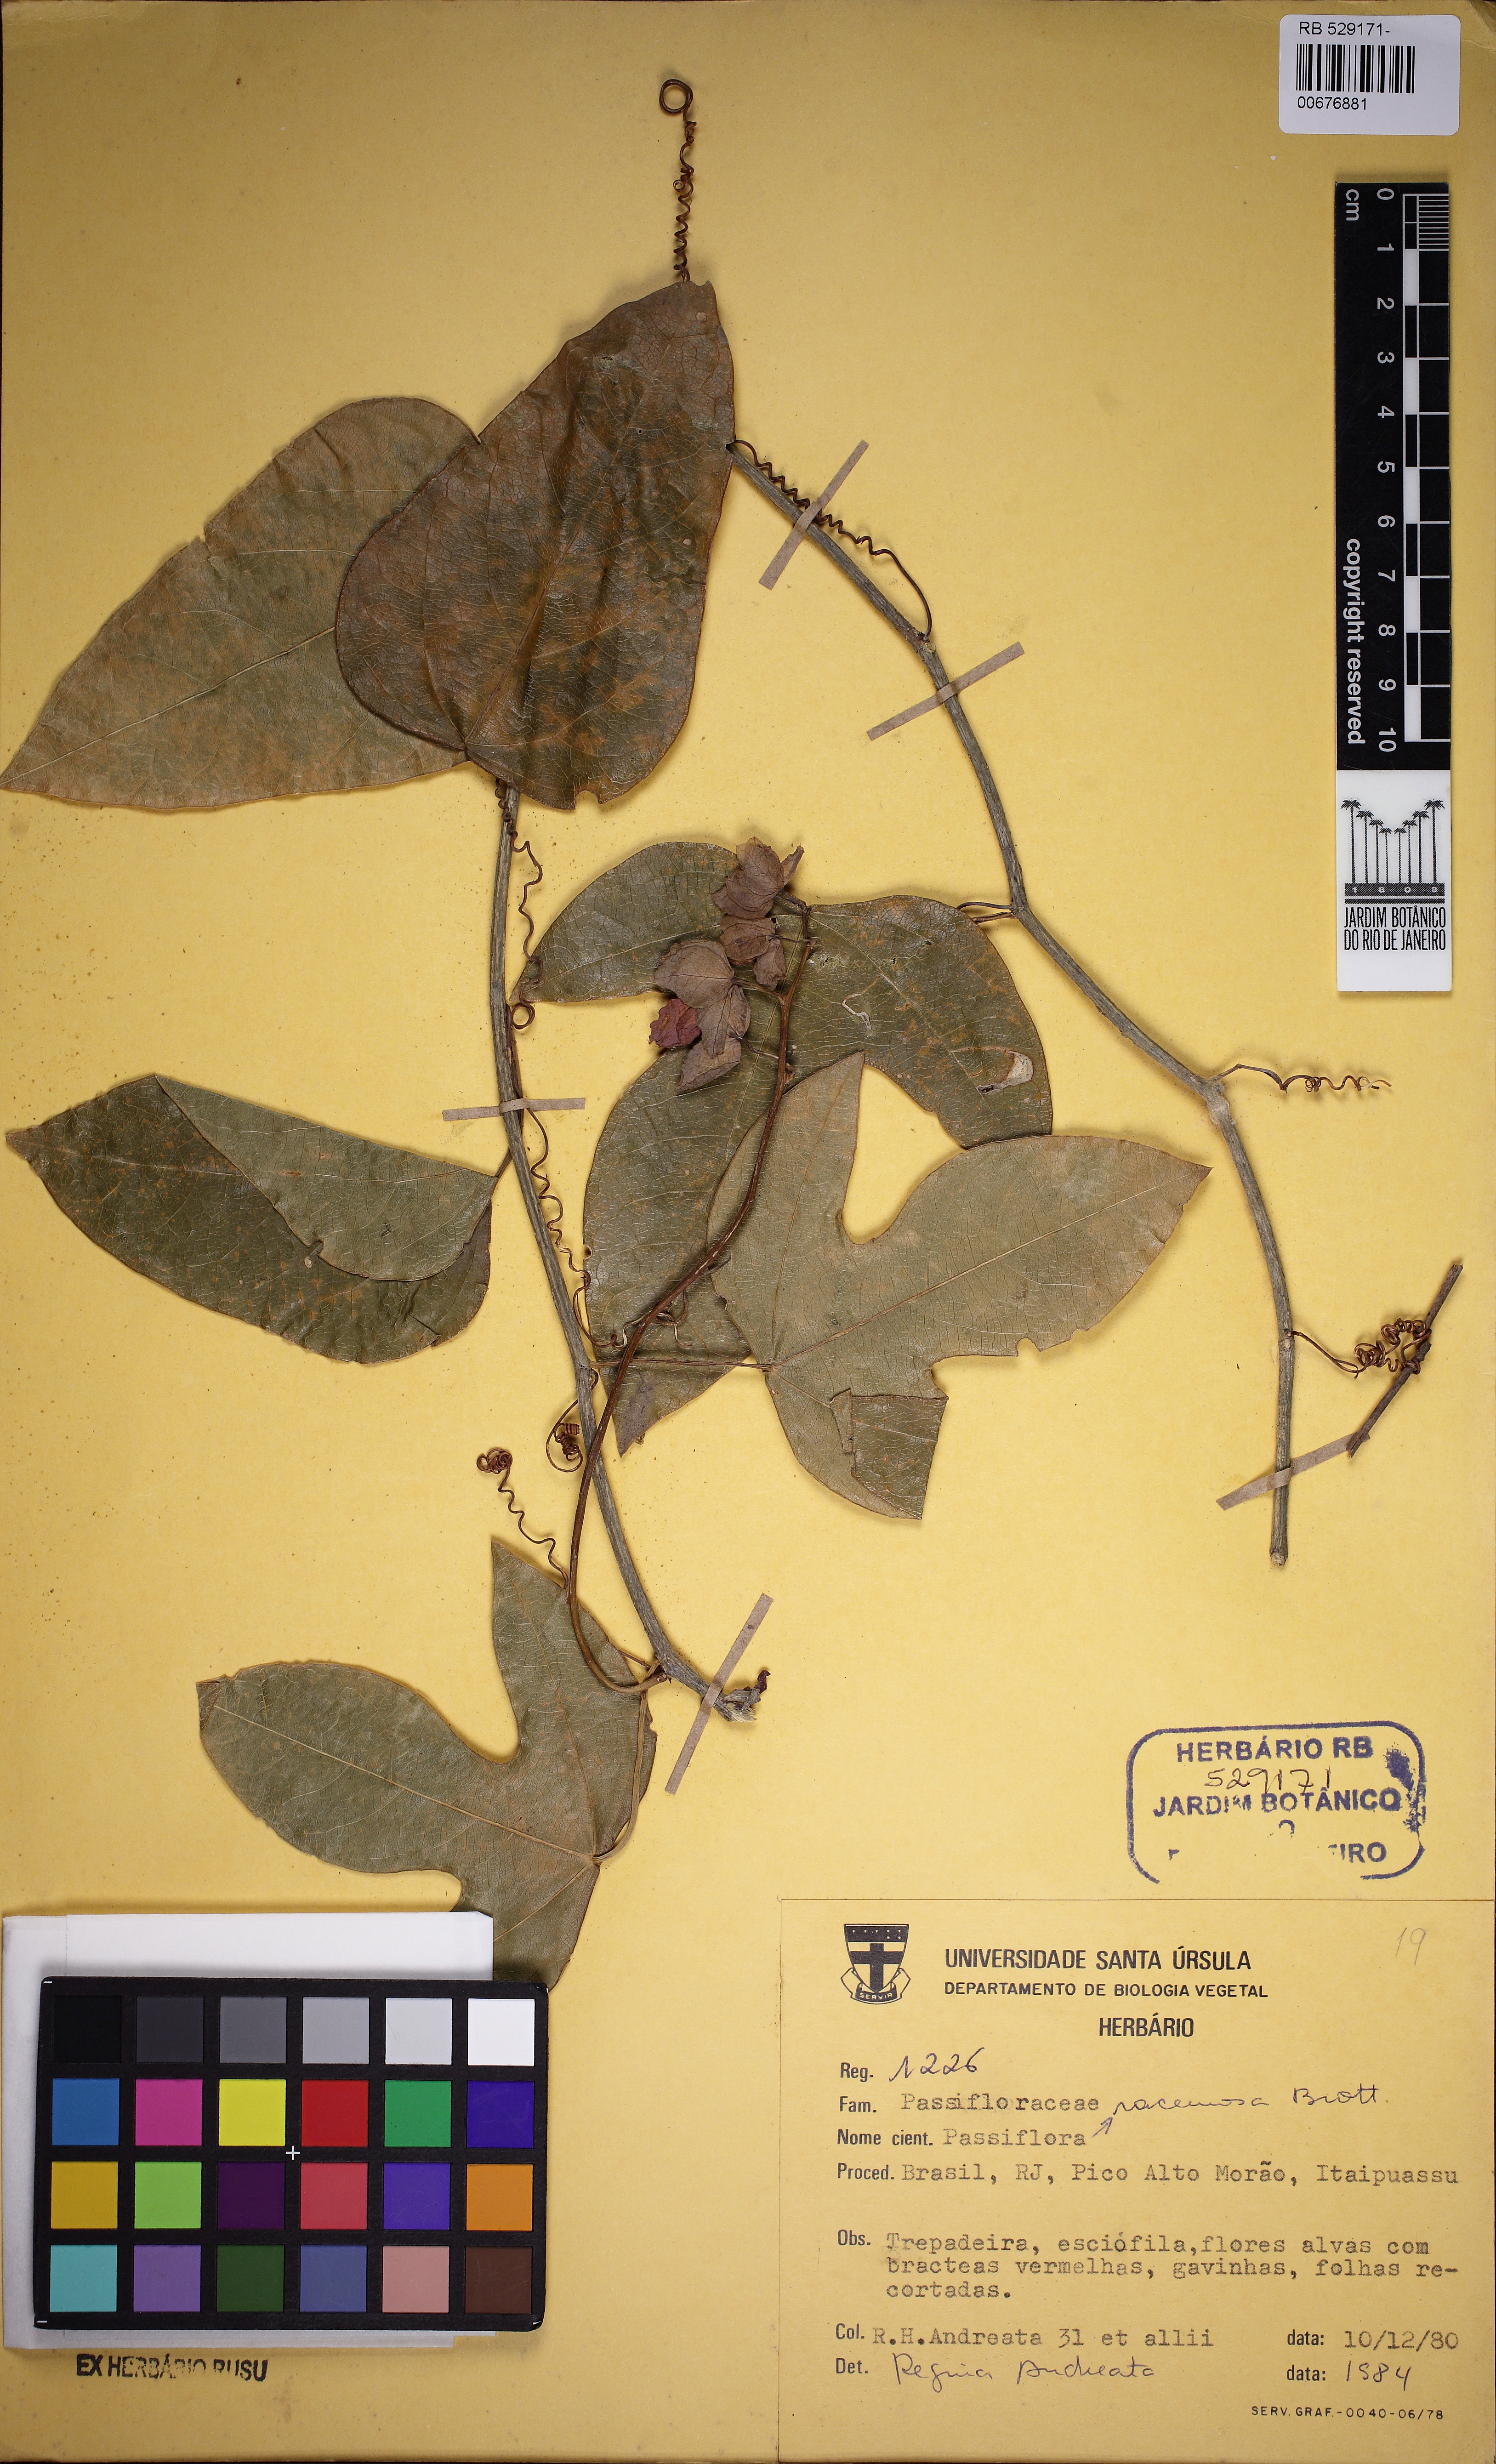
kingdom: Plantae
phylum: Tracheophyta
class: Magnoliopsida
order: Malpighiales
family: Passifloraceae
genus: Passiflora
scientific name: Passiflora racemosa
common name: Red passionflower
